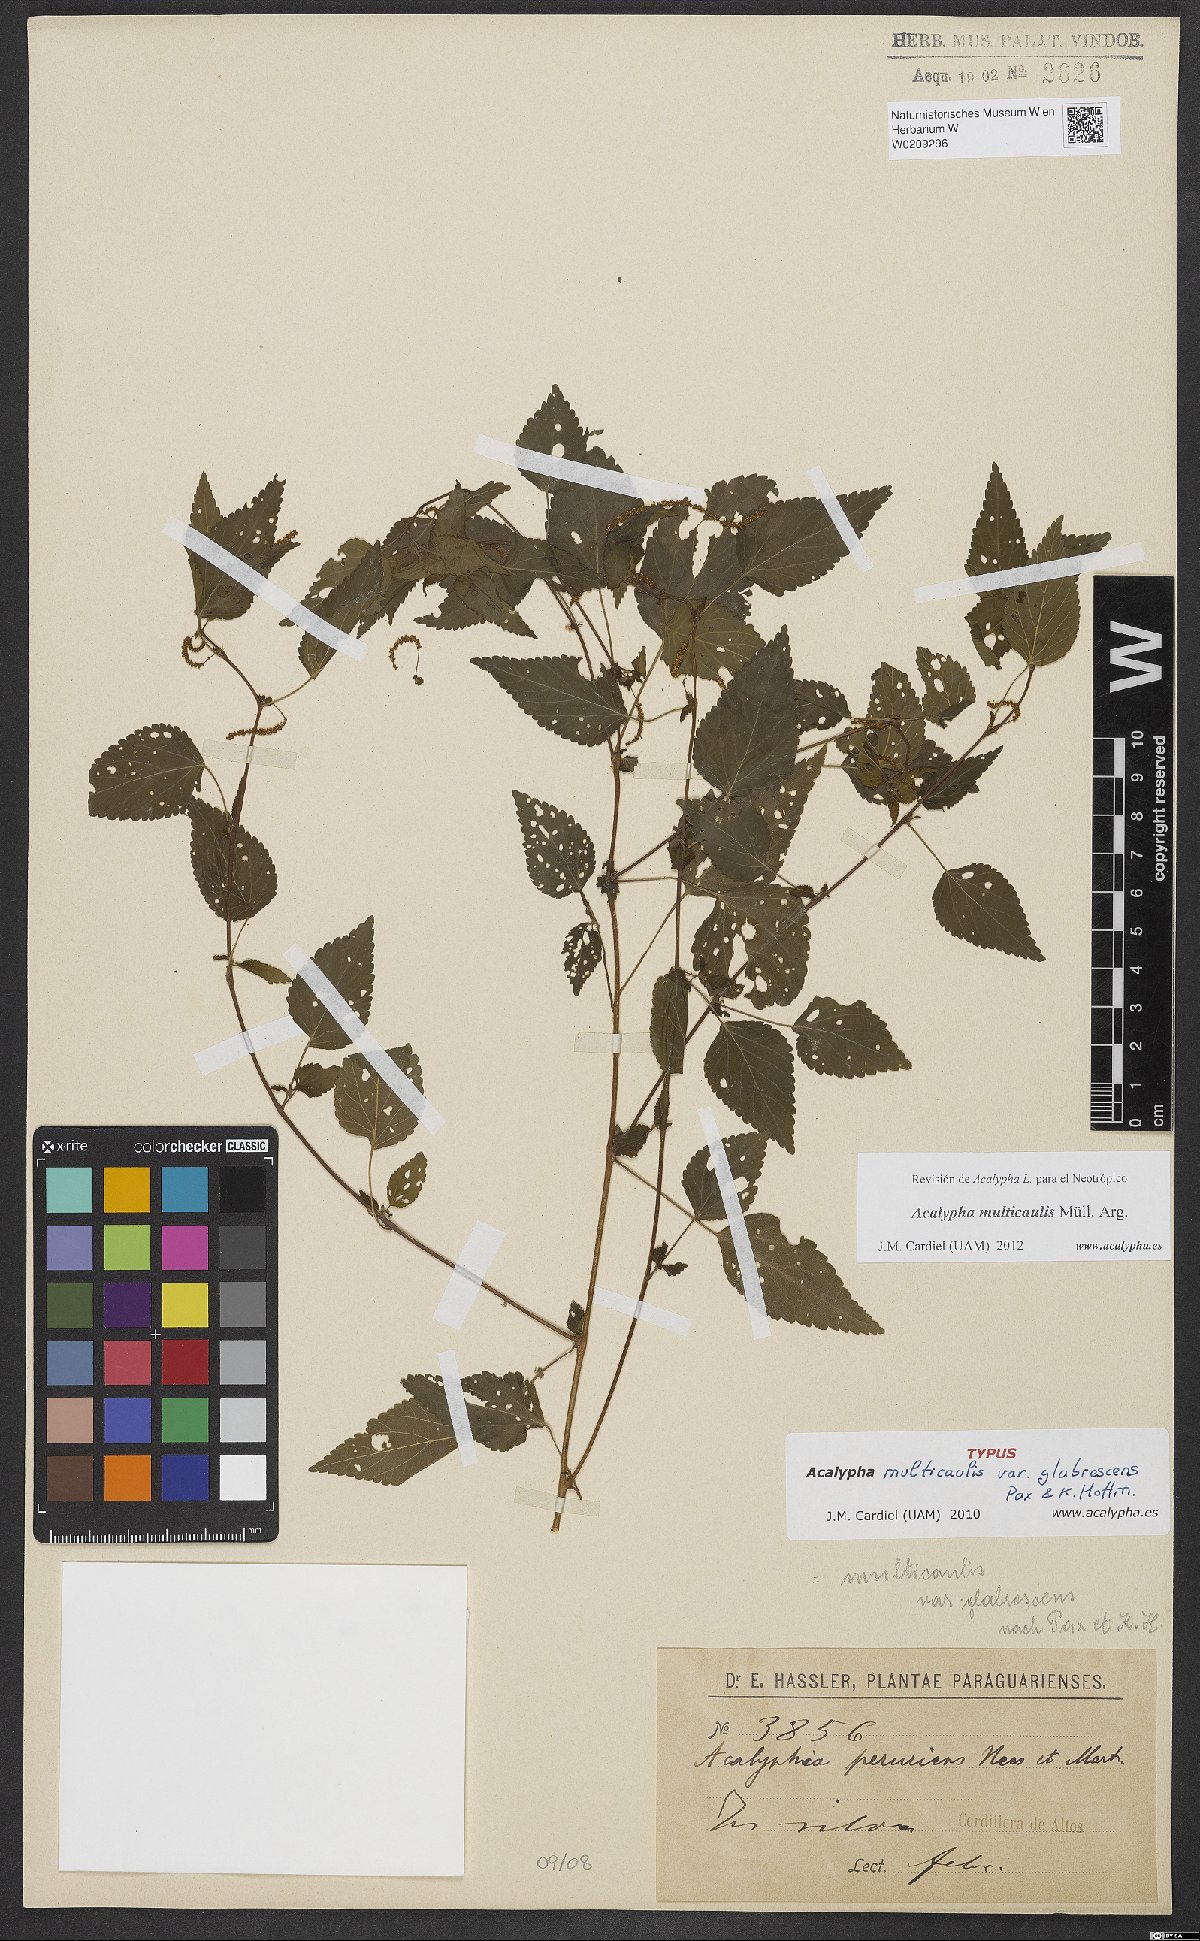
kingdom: Plantae
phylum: Tracheophyta
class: Magnoliopsida
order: Malpighiales
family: Euphorbiaceae
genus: Acalypha
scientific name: Acalypha multicaulis
